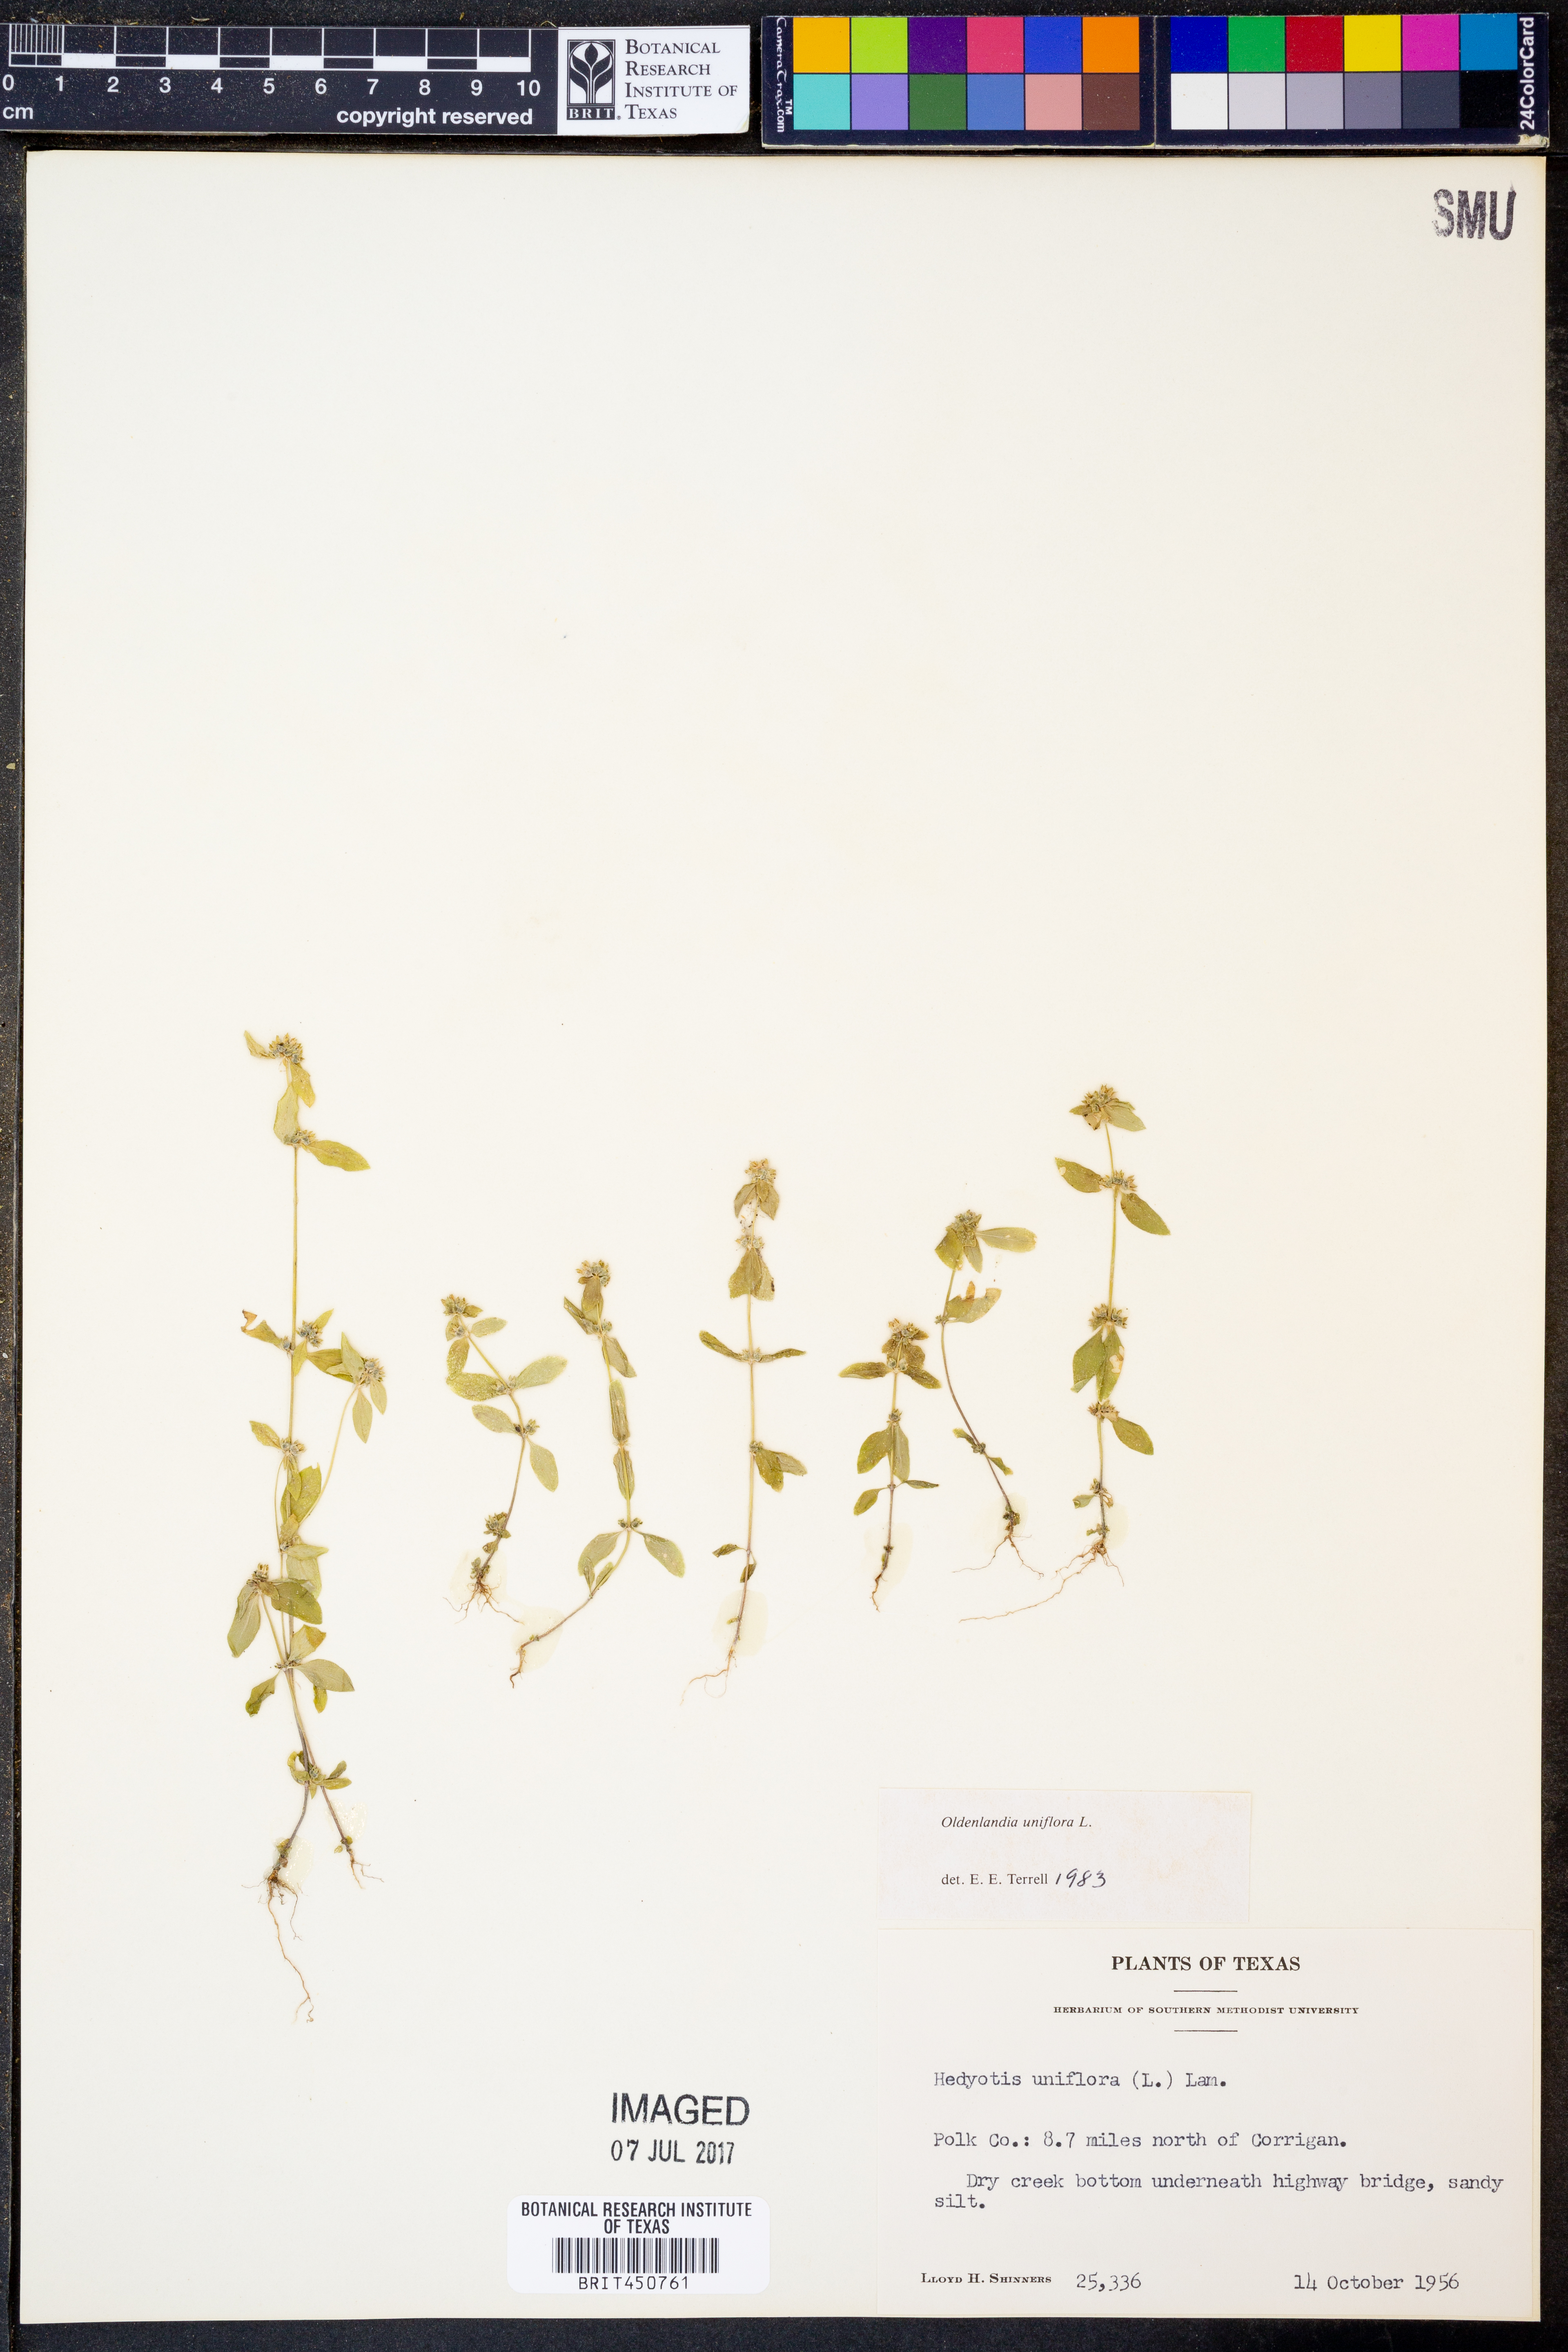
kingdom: Plantae
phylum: Tracheophyta
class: Magnoliopsida
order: Gentianales
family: Rubiaceae
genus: Edrastima
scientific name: Edrastima uniflora
